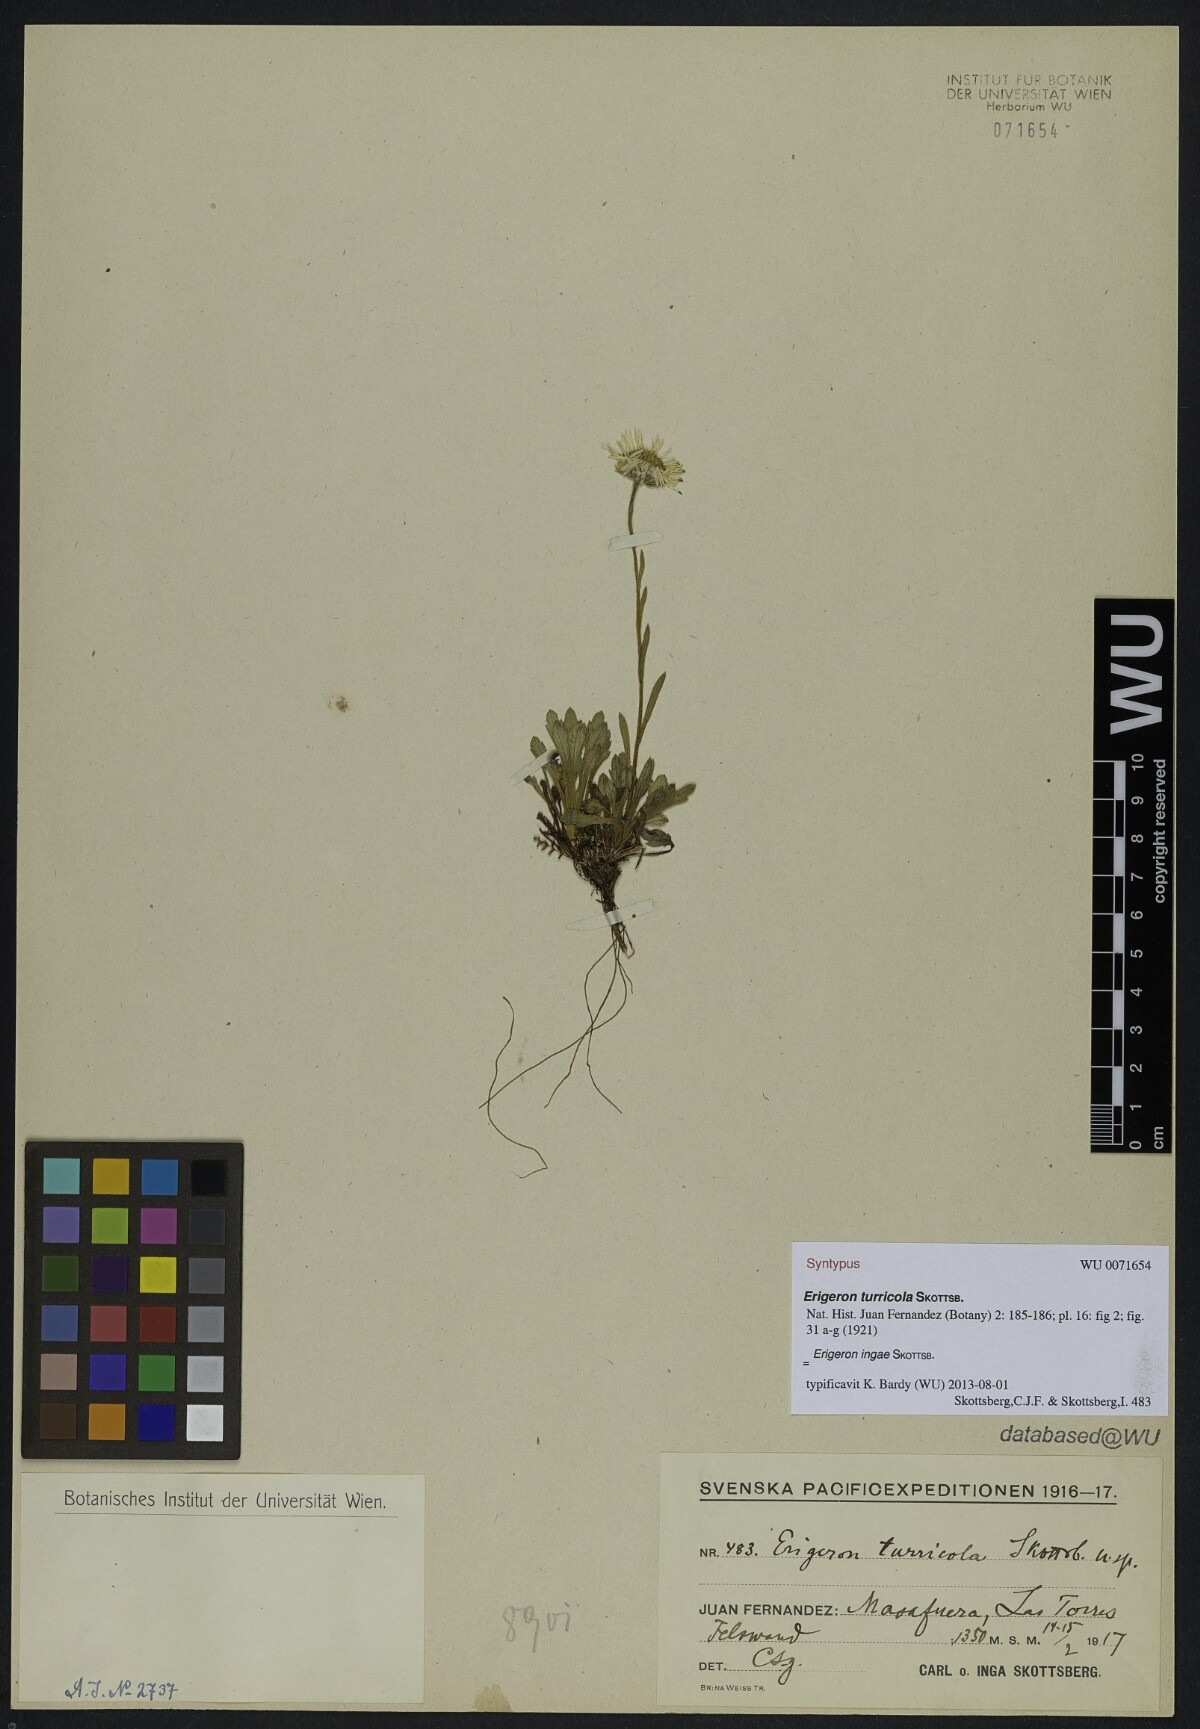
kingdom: Plantae
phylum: Tracheophyta
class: Magnoliopsida
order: Asterales
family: Asteraceae
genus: Erigeron
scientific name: Erigeron ingae
